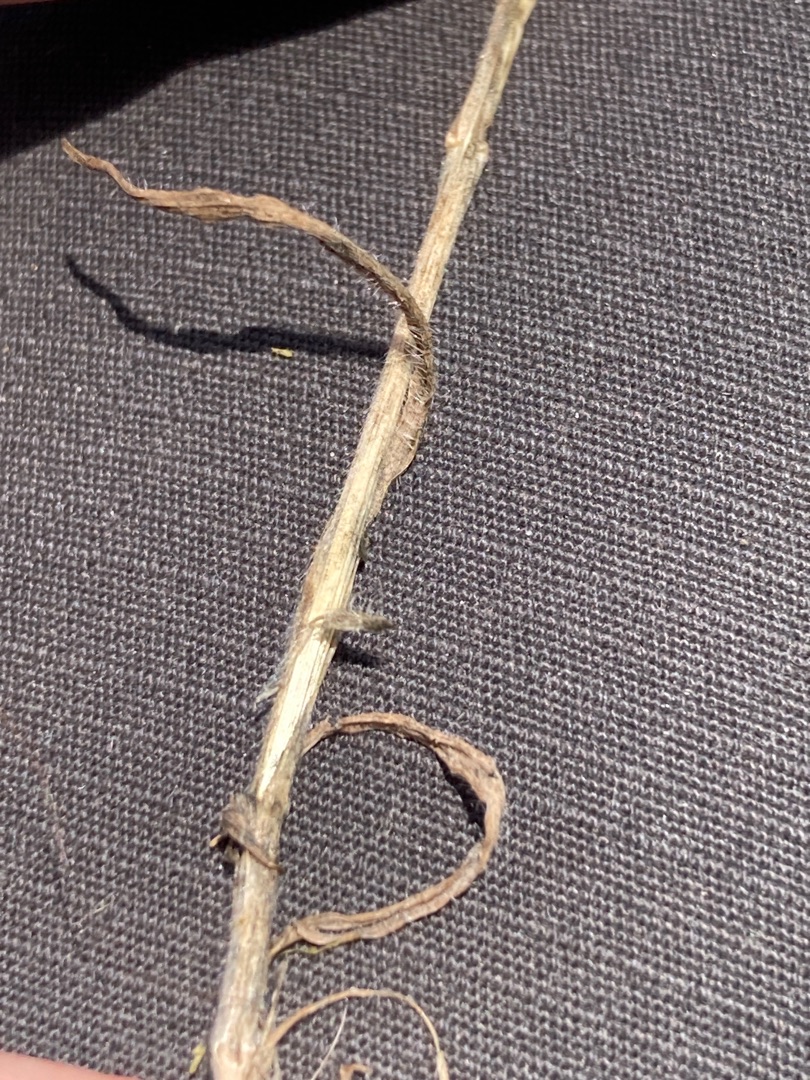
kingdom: Plantae
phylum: Tracheophyta
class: Liliopsida
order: Poales
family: Poaceae
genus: Bromus
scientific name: Bromus hordeaceus
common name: Blød hejre
